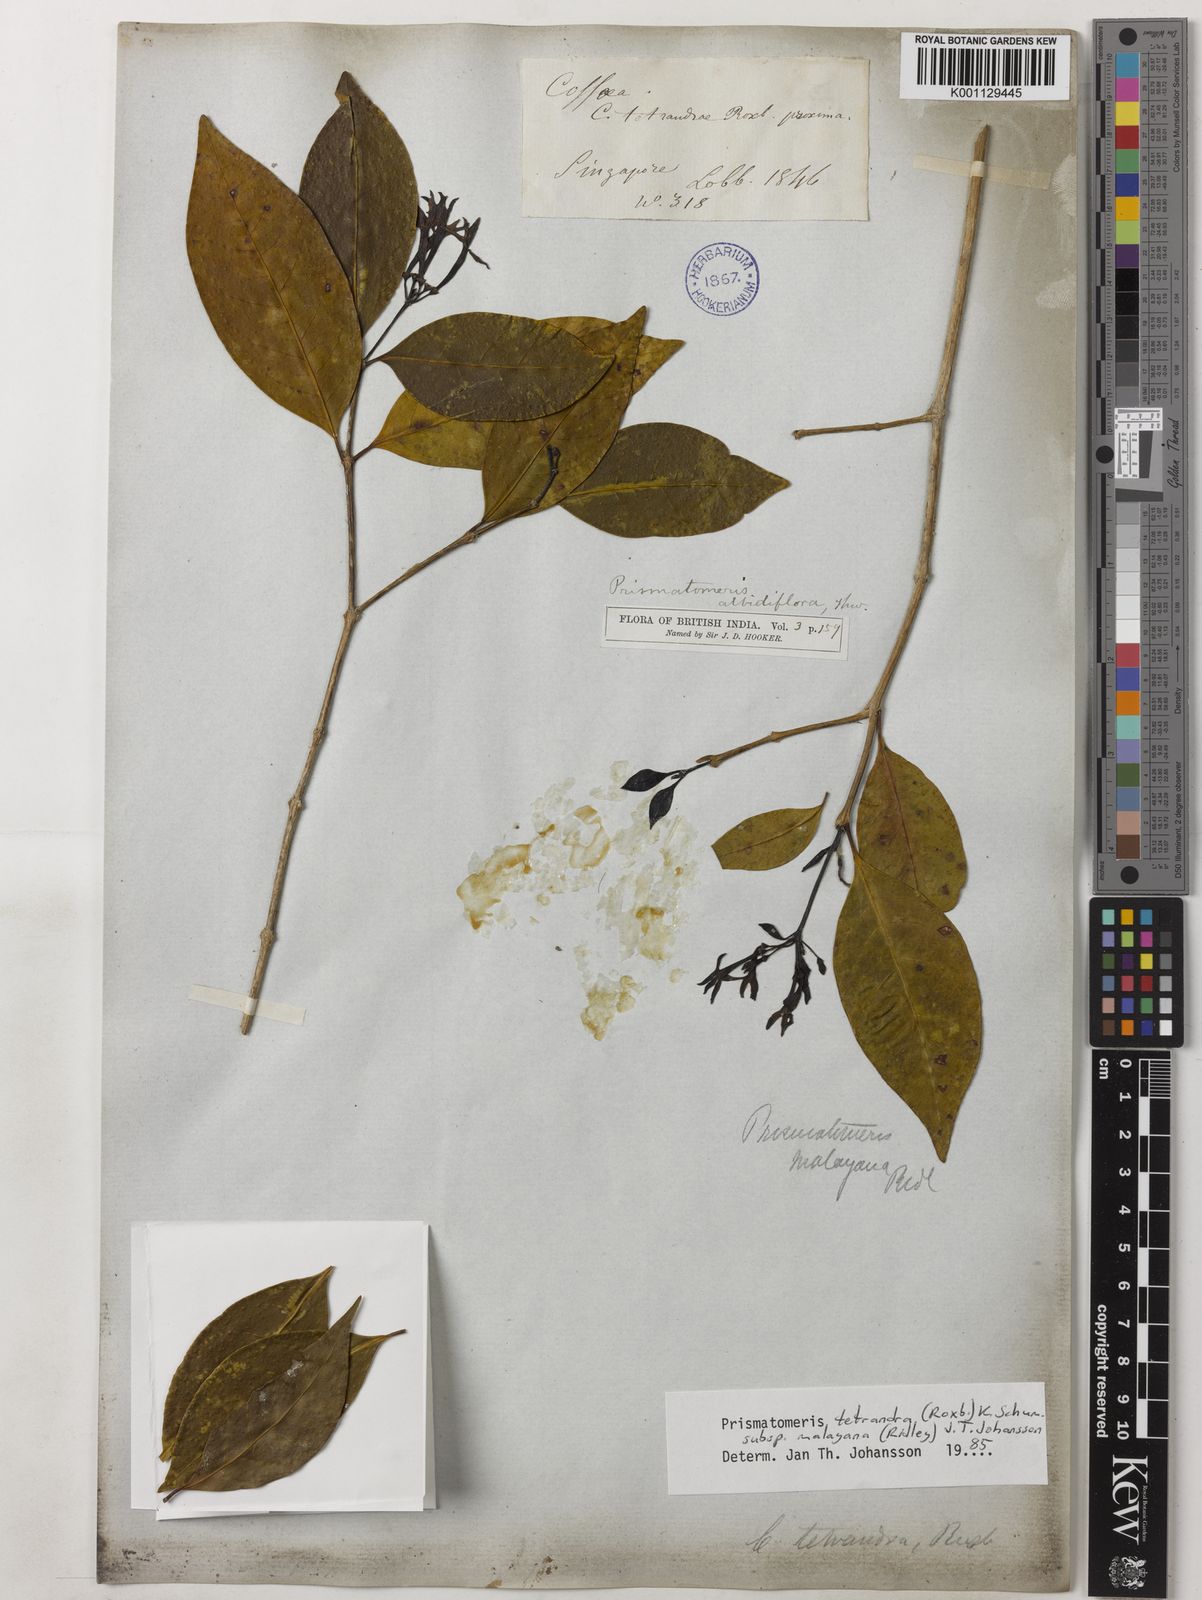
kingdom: Plantae
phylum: Tracheophyta
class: Magnoliopsida
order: Gentianales
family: Rubiaceae
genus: Prismatomeris
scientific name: Prismatomeris tetrandra
